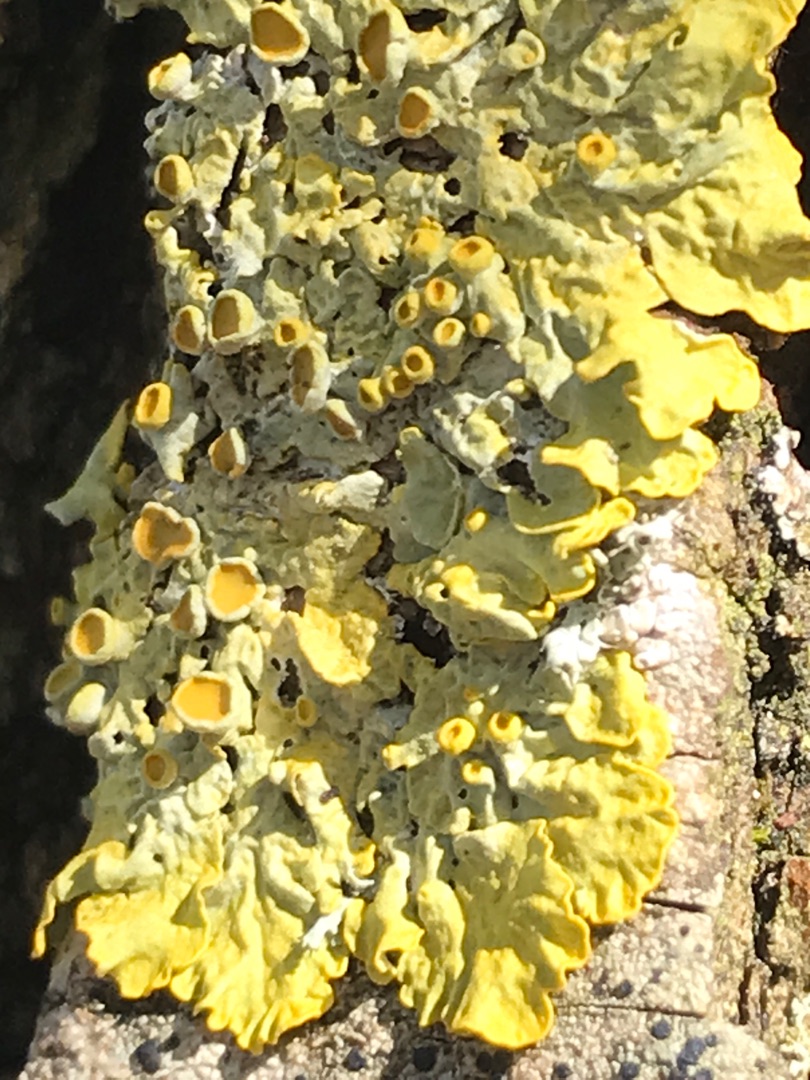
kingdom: Fungi
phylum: Ascomycota
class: Lecanoromycetes
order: Teloschistales
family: Teloschistaceae
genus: Xanthoria
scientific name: Xanthoria parietina
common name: Almindelig væggelav
